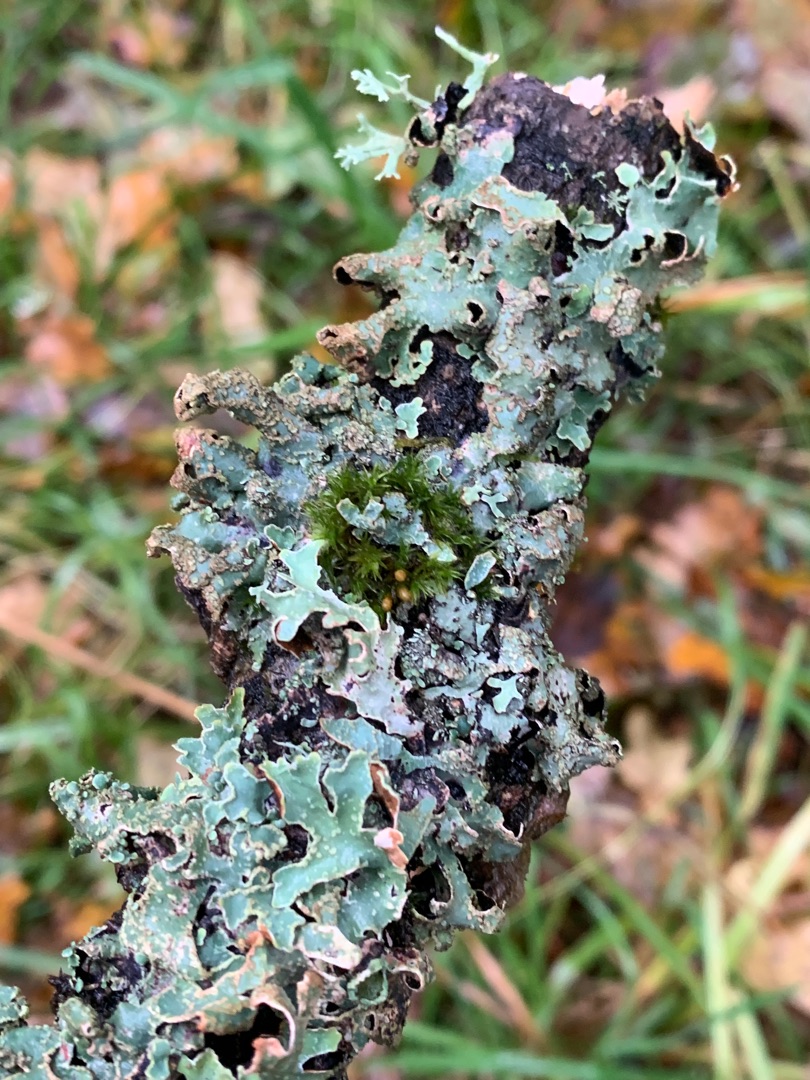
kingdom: Fungi
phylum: Ascomycota
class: Lecanoromycetes
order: Lecanorales
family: Parmeliaceae
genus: Parmelia
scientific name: Parmelia sulcata
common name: Rynket skållav
